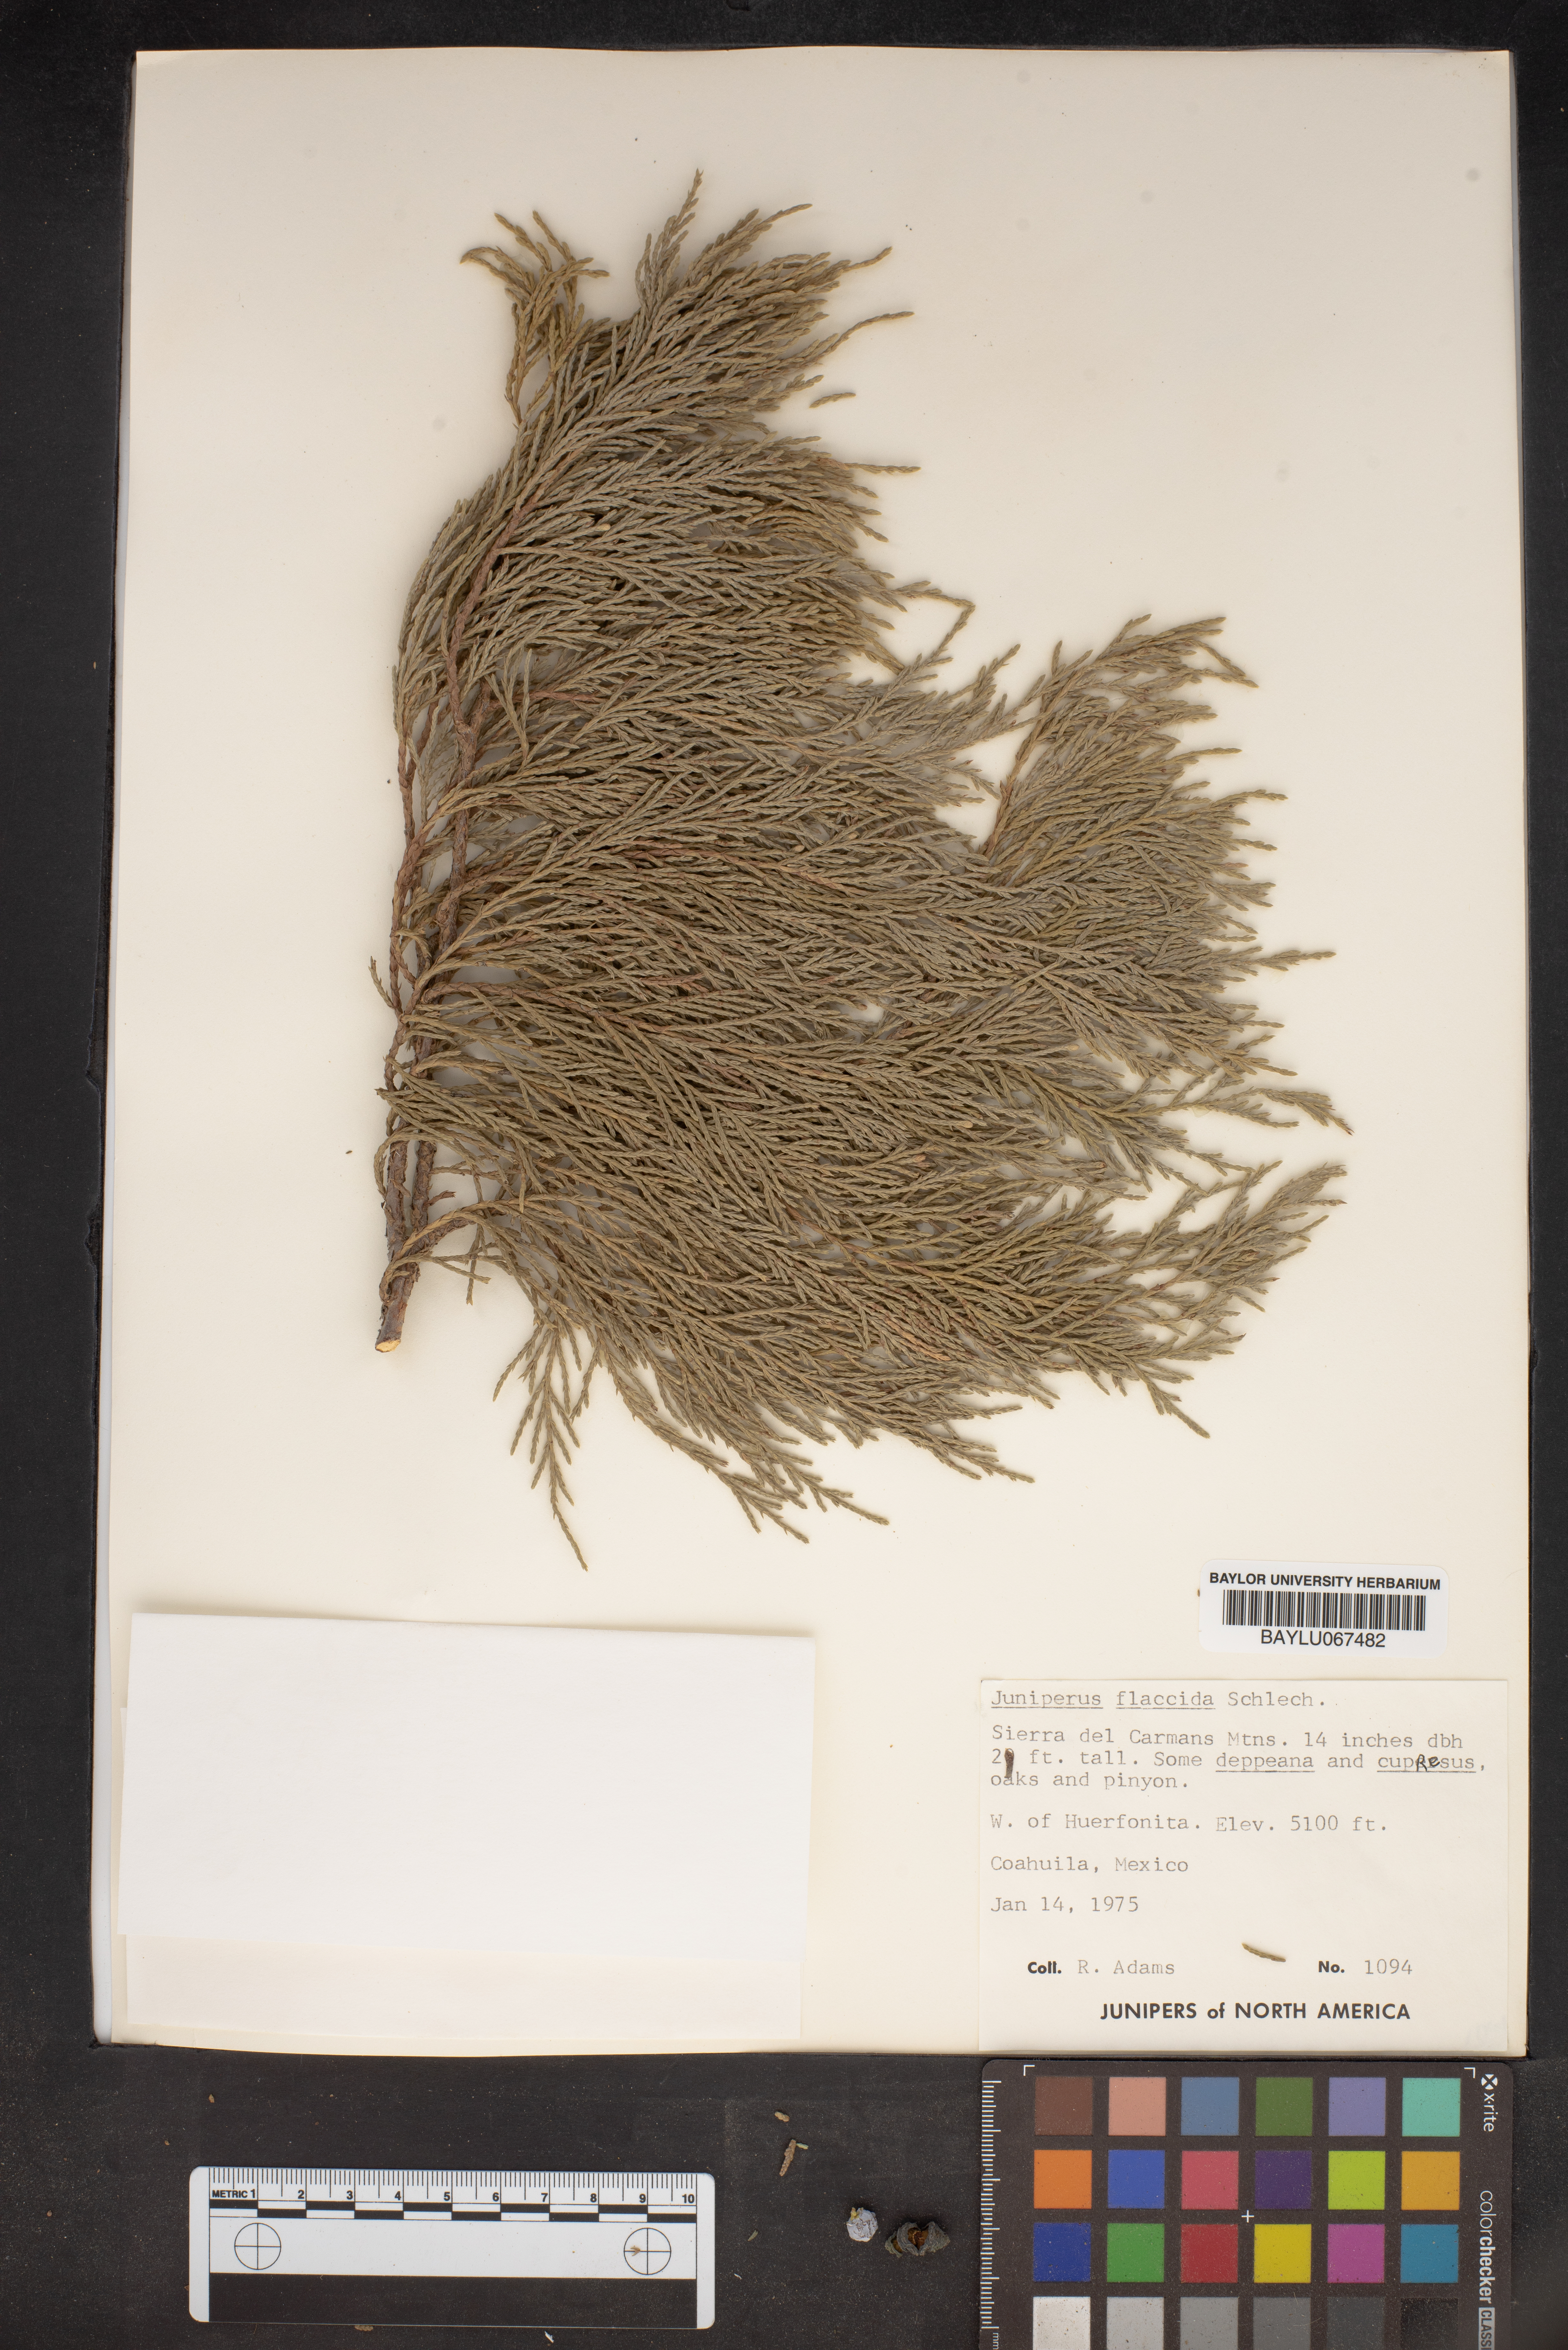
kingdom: Plantae
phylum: Tracheophyta
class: Pinopsida
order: Pinales
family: Cupressaceae
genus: Juniperus
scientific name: Juniperus flaccida
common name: Drooping juniper
